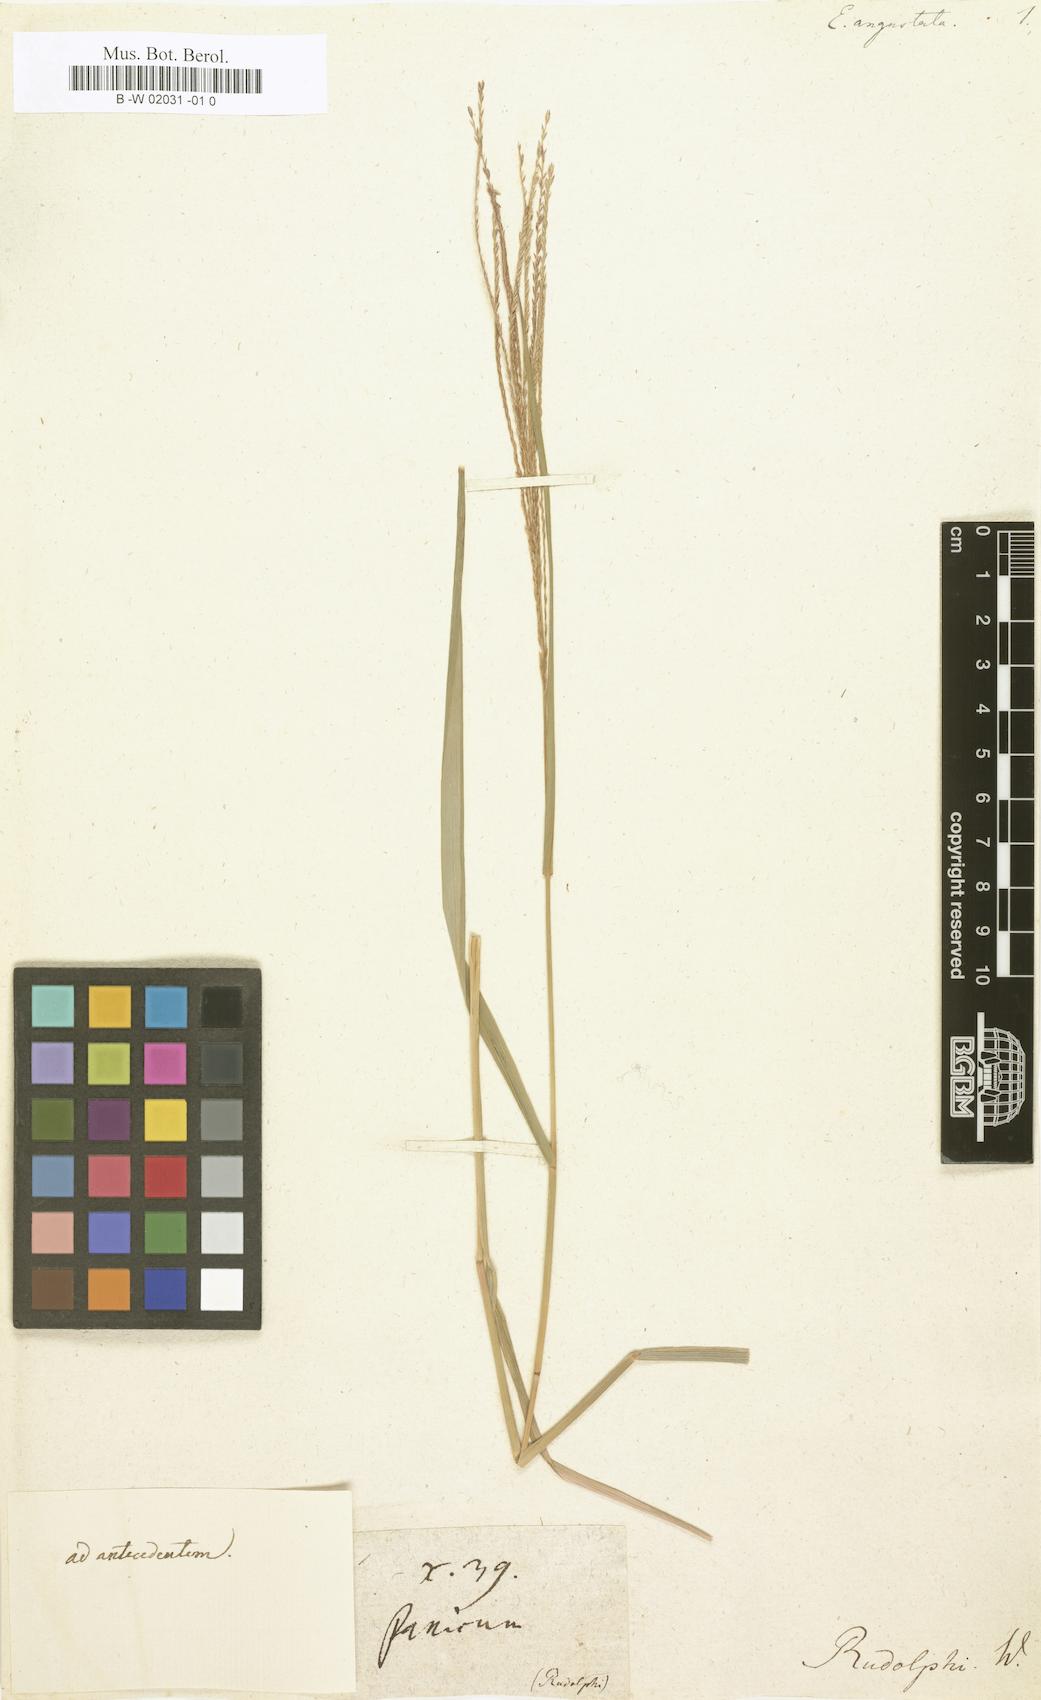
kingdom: Plantae
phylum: Tracheophyta
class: Liliopsida
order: Poales
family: Poaceae
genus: Eleusine
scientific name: Eleusine
